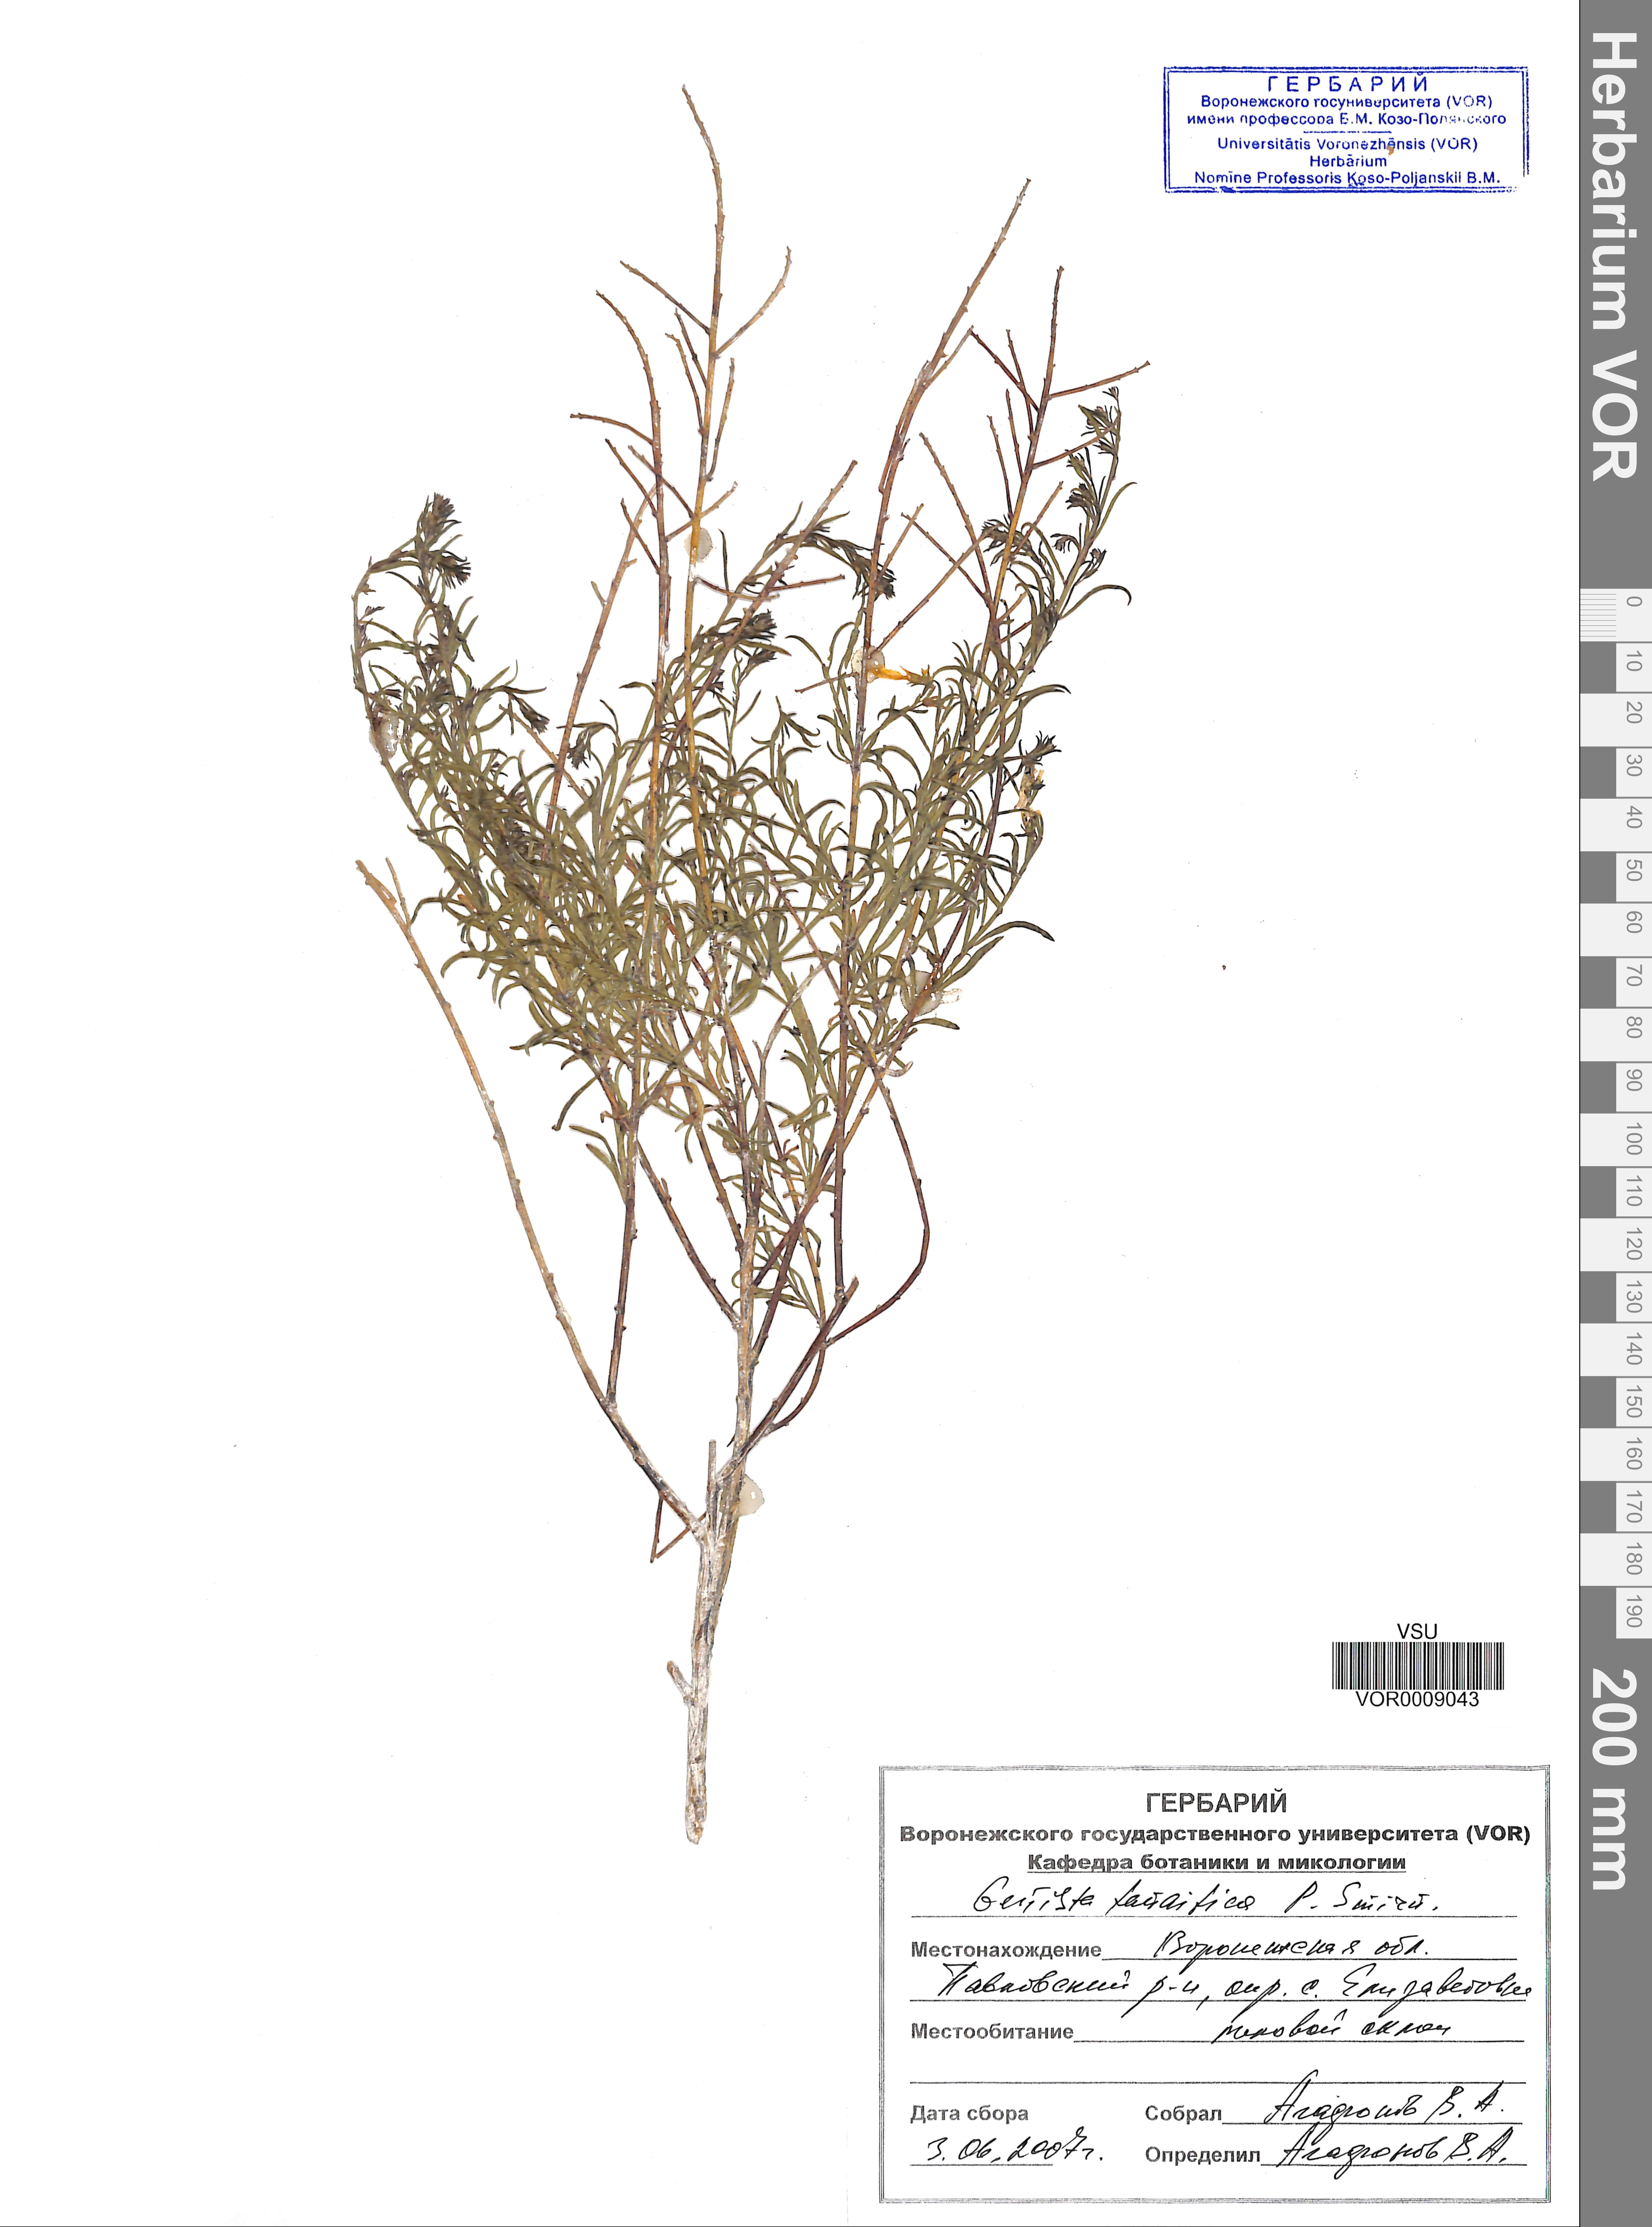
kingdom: Plantae
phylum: Tracheophyta
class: Magnoliopsida
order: Fabales
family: Fabaceae
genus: Genista
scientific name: Genista tinctoria
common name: Dyer's greenweed
